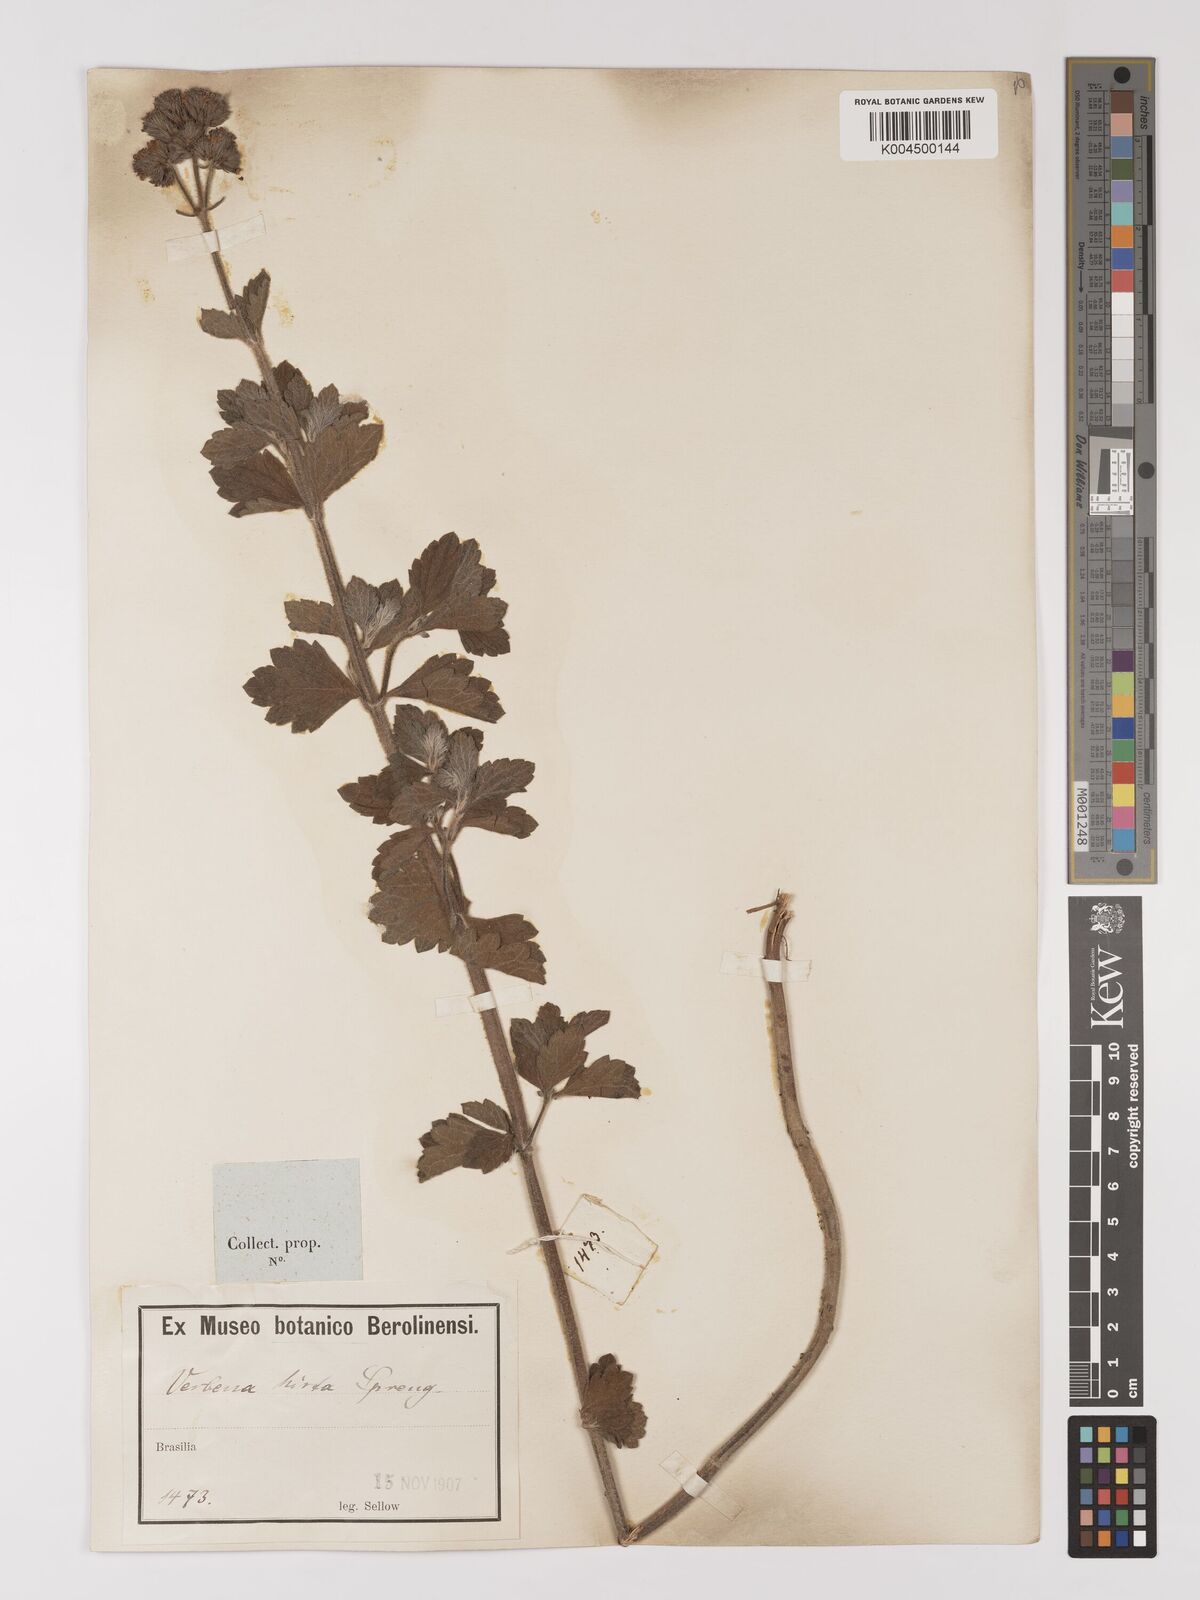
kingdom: Plantae
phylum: Tracheophyta
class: Magnoliopsida
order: Lamiales
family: Verbenaceae
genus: Verbena
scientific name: Verbena hirta
